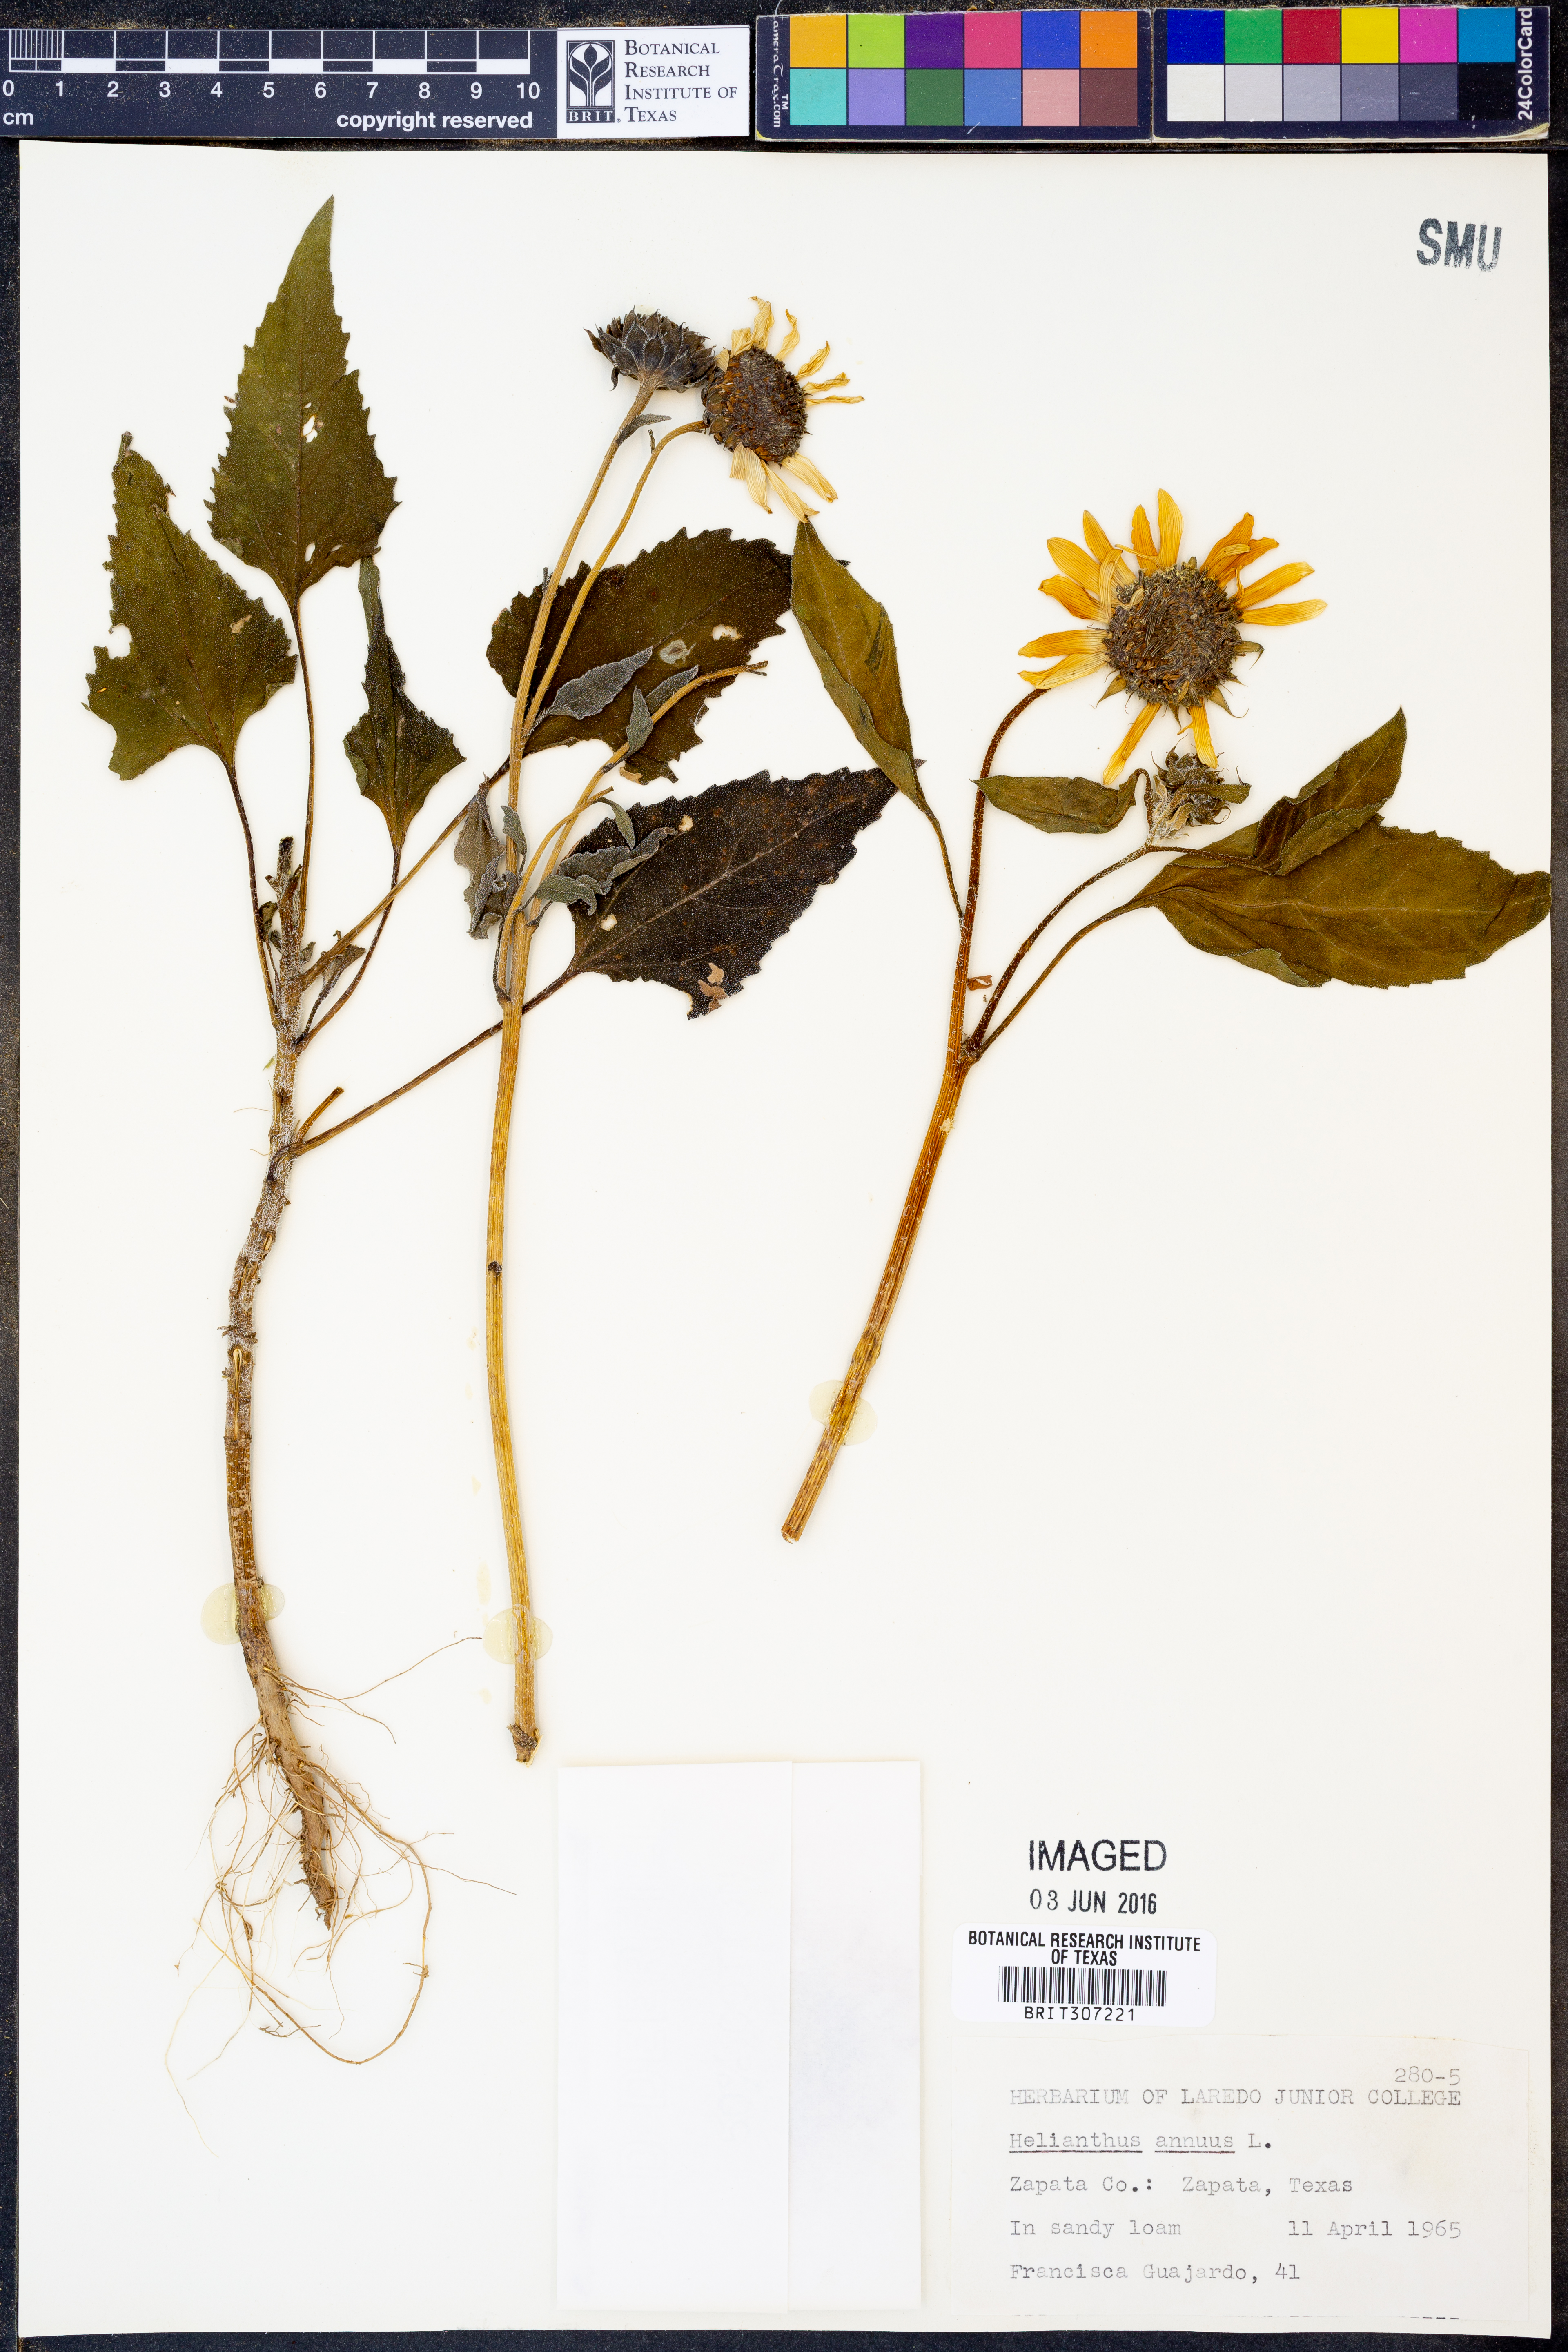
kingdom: Plantae
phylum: Tracheophyta
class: Magnoliopsida
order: Asterales
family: Asteraceae
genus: Helianthus
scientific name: Helianthus annuus
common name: Sunflower
